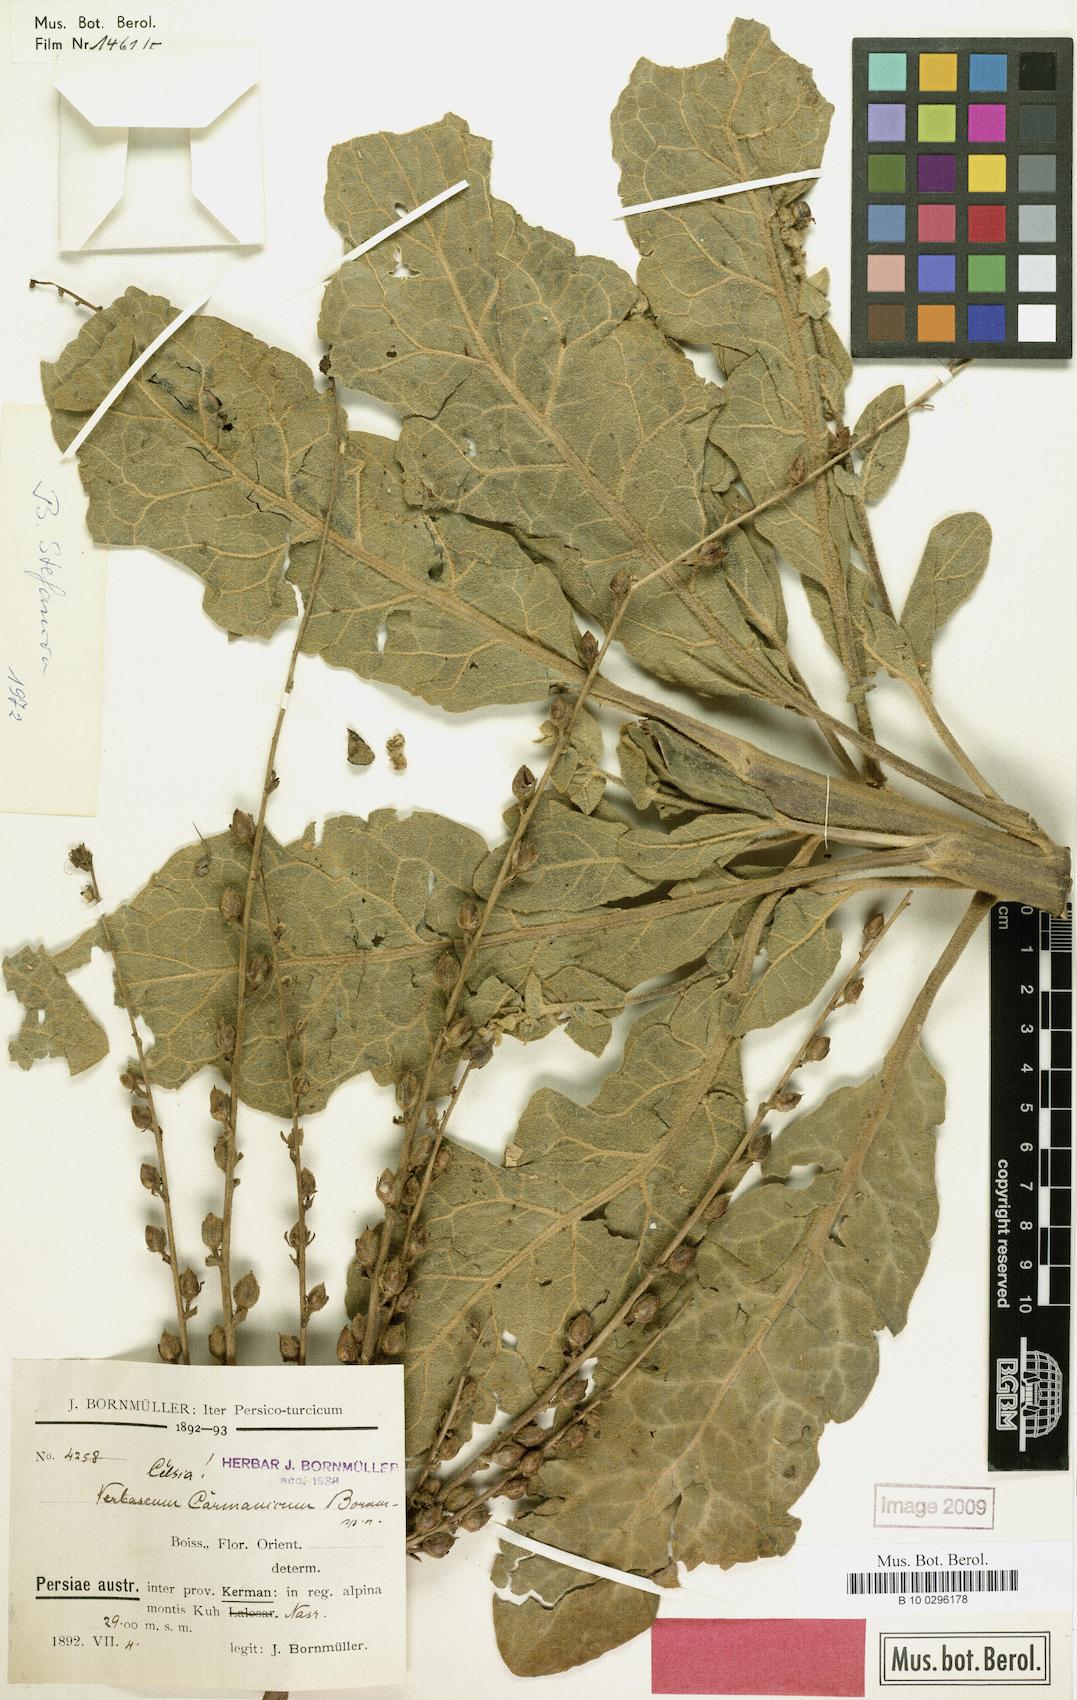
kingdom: Plantae
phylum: Tracheophyta
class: Magnoliopsida
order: Lamiales
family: Scrophulariaceae
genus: Verbascum
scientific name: Verbascum carmanicum
